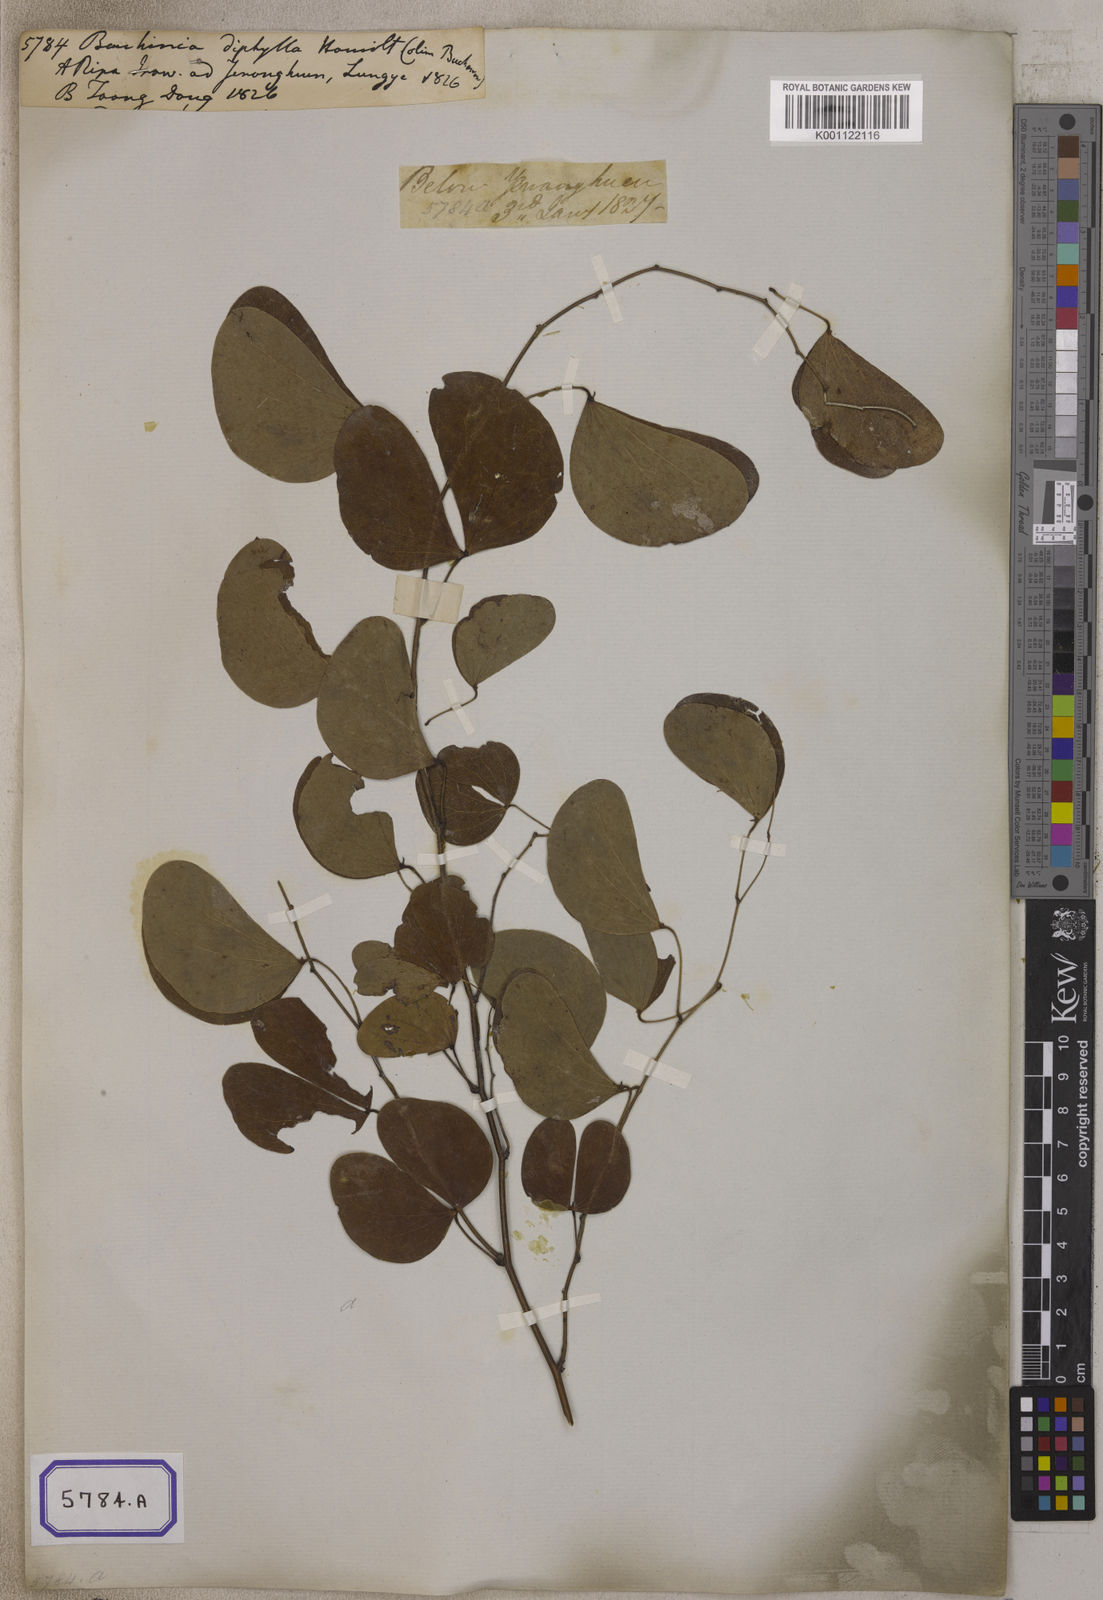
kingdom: Plantae
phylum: Tracheophyta
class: Magnoliopsida
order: Fabales
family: Fabaceae
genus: Bauhinia
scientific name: Bauhinia
